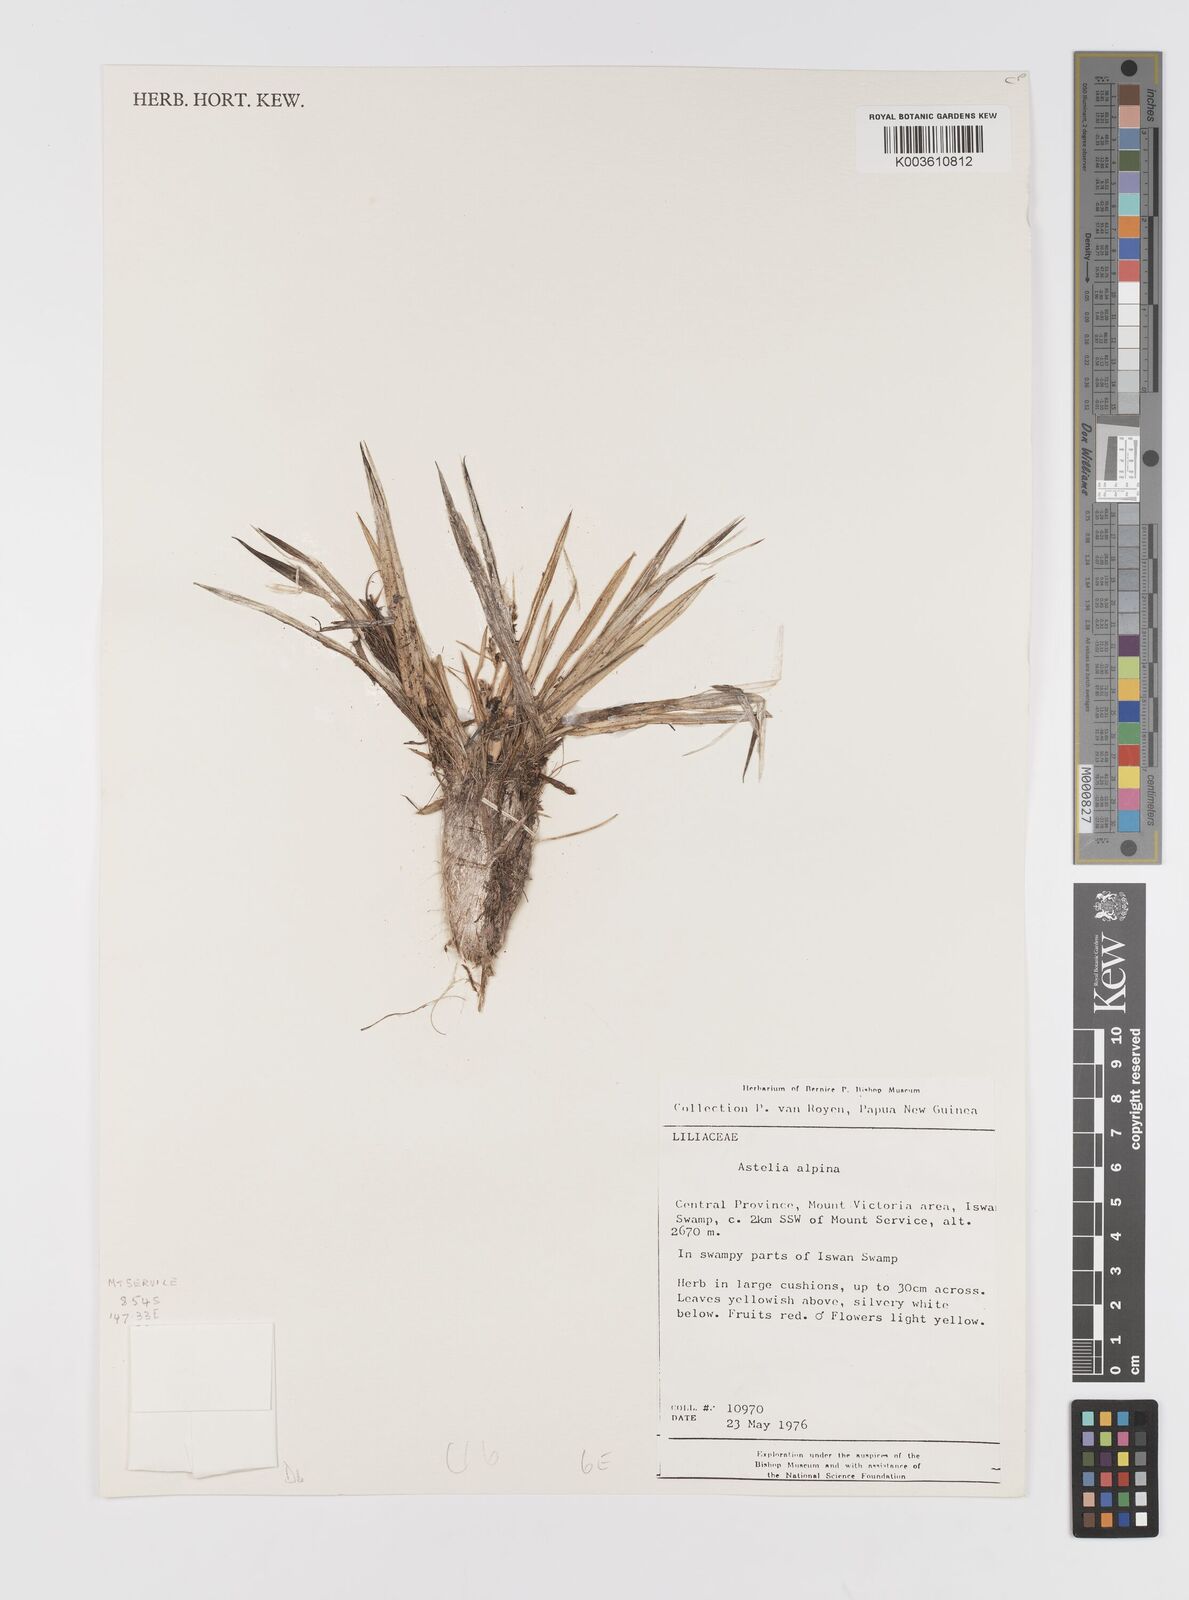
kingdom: Plantae
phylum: Tracheophyta
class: Liliopsida
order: Asparagales
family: Asteliaceae
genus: Astelia
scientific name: Astelia papuana
